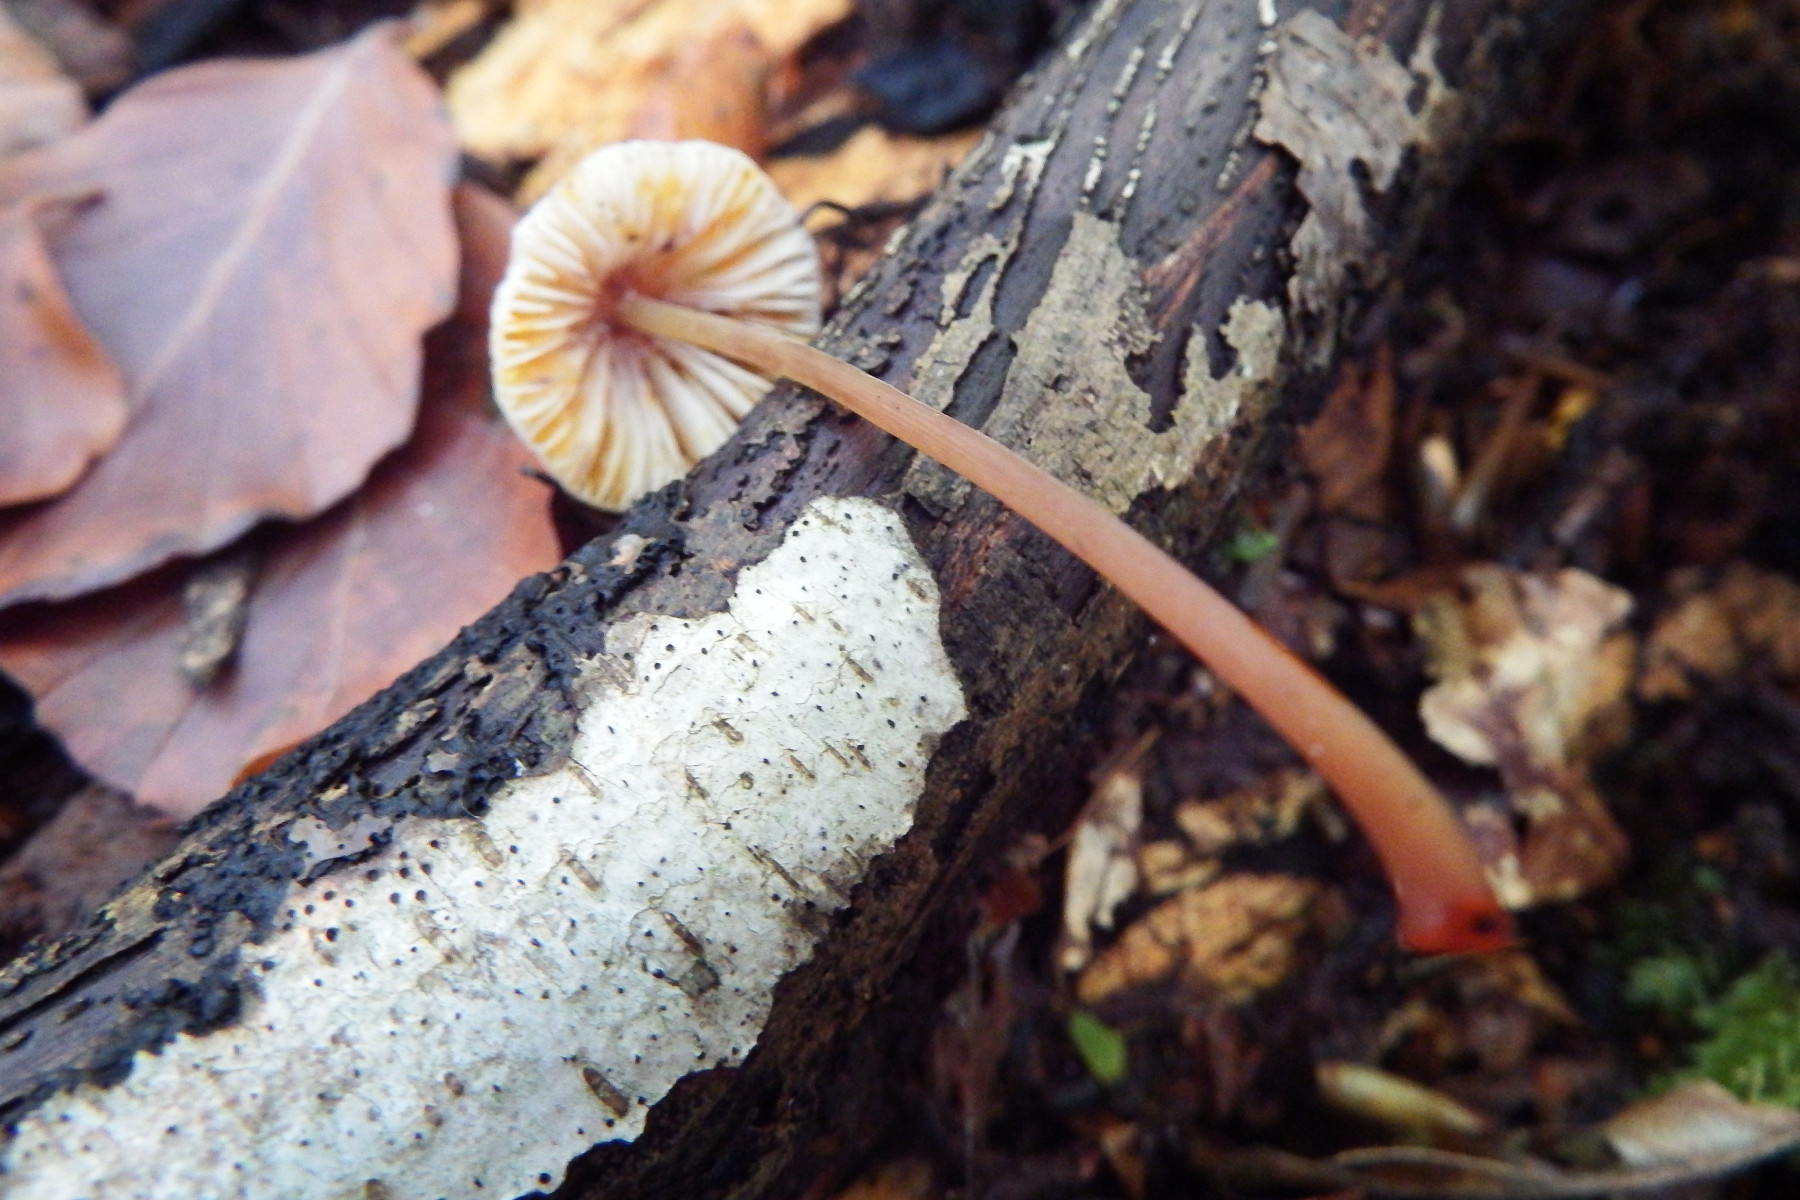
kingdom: Fungi
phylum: Basidiomycota
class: Agaricomycetes
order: Agaricales
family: Mycenaceae
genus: Mycena
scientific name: Mycena crocata
